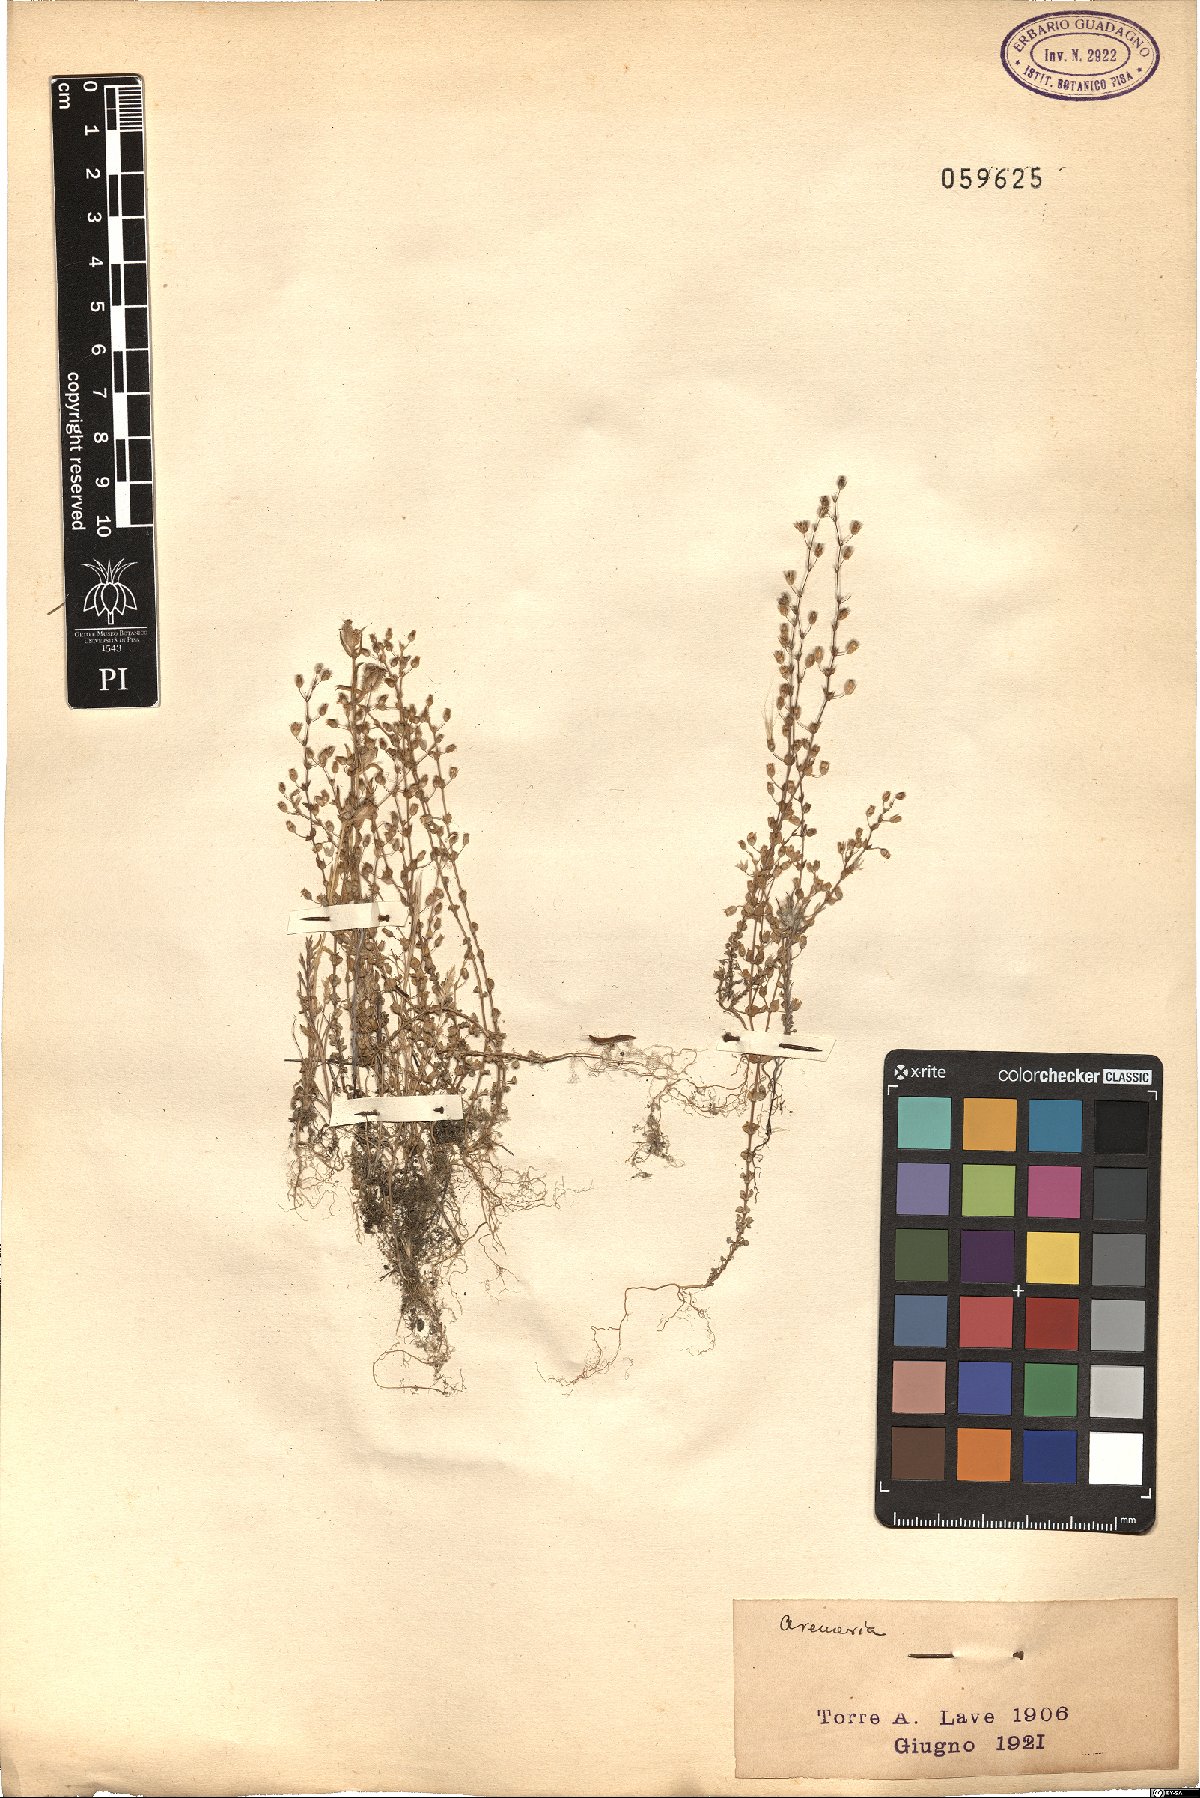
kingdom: Plantae
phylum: Tracheophyta
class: Magnoliopsida
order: Caryophyllales
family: Caryophyllaceae
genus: Arenaria
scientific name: Arenaria
